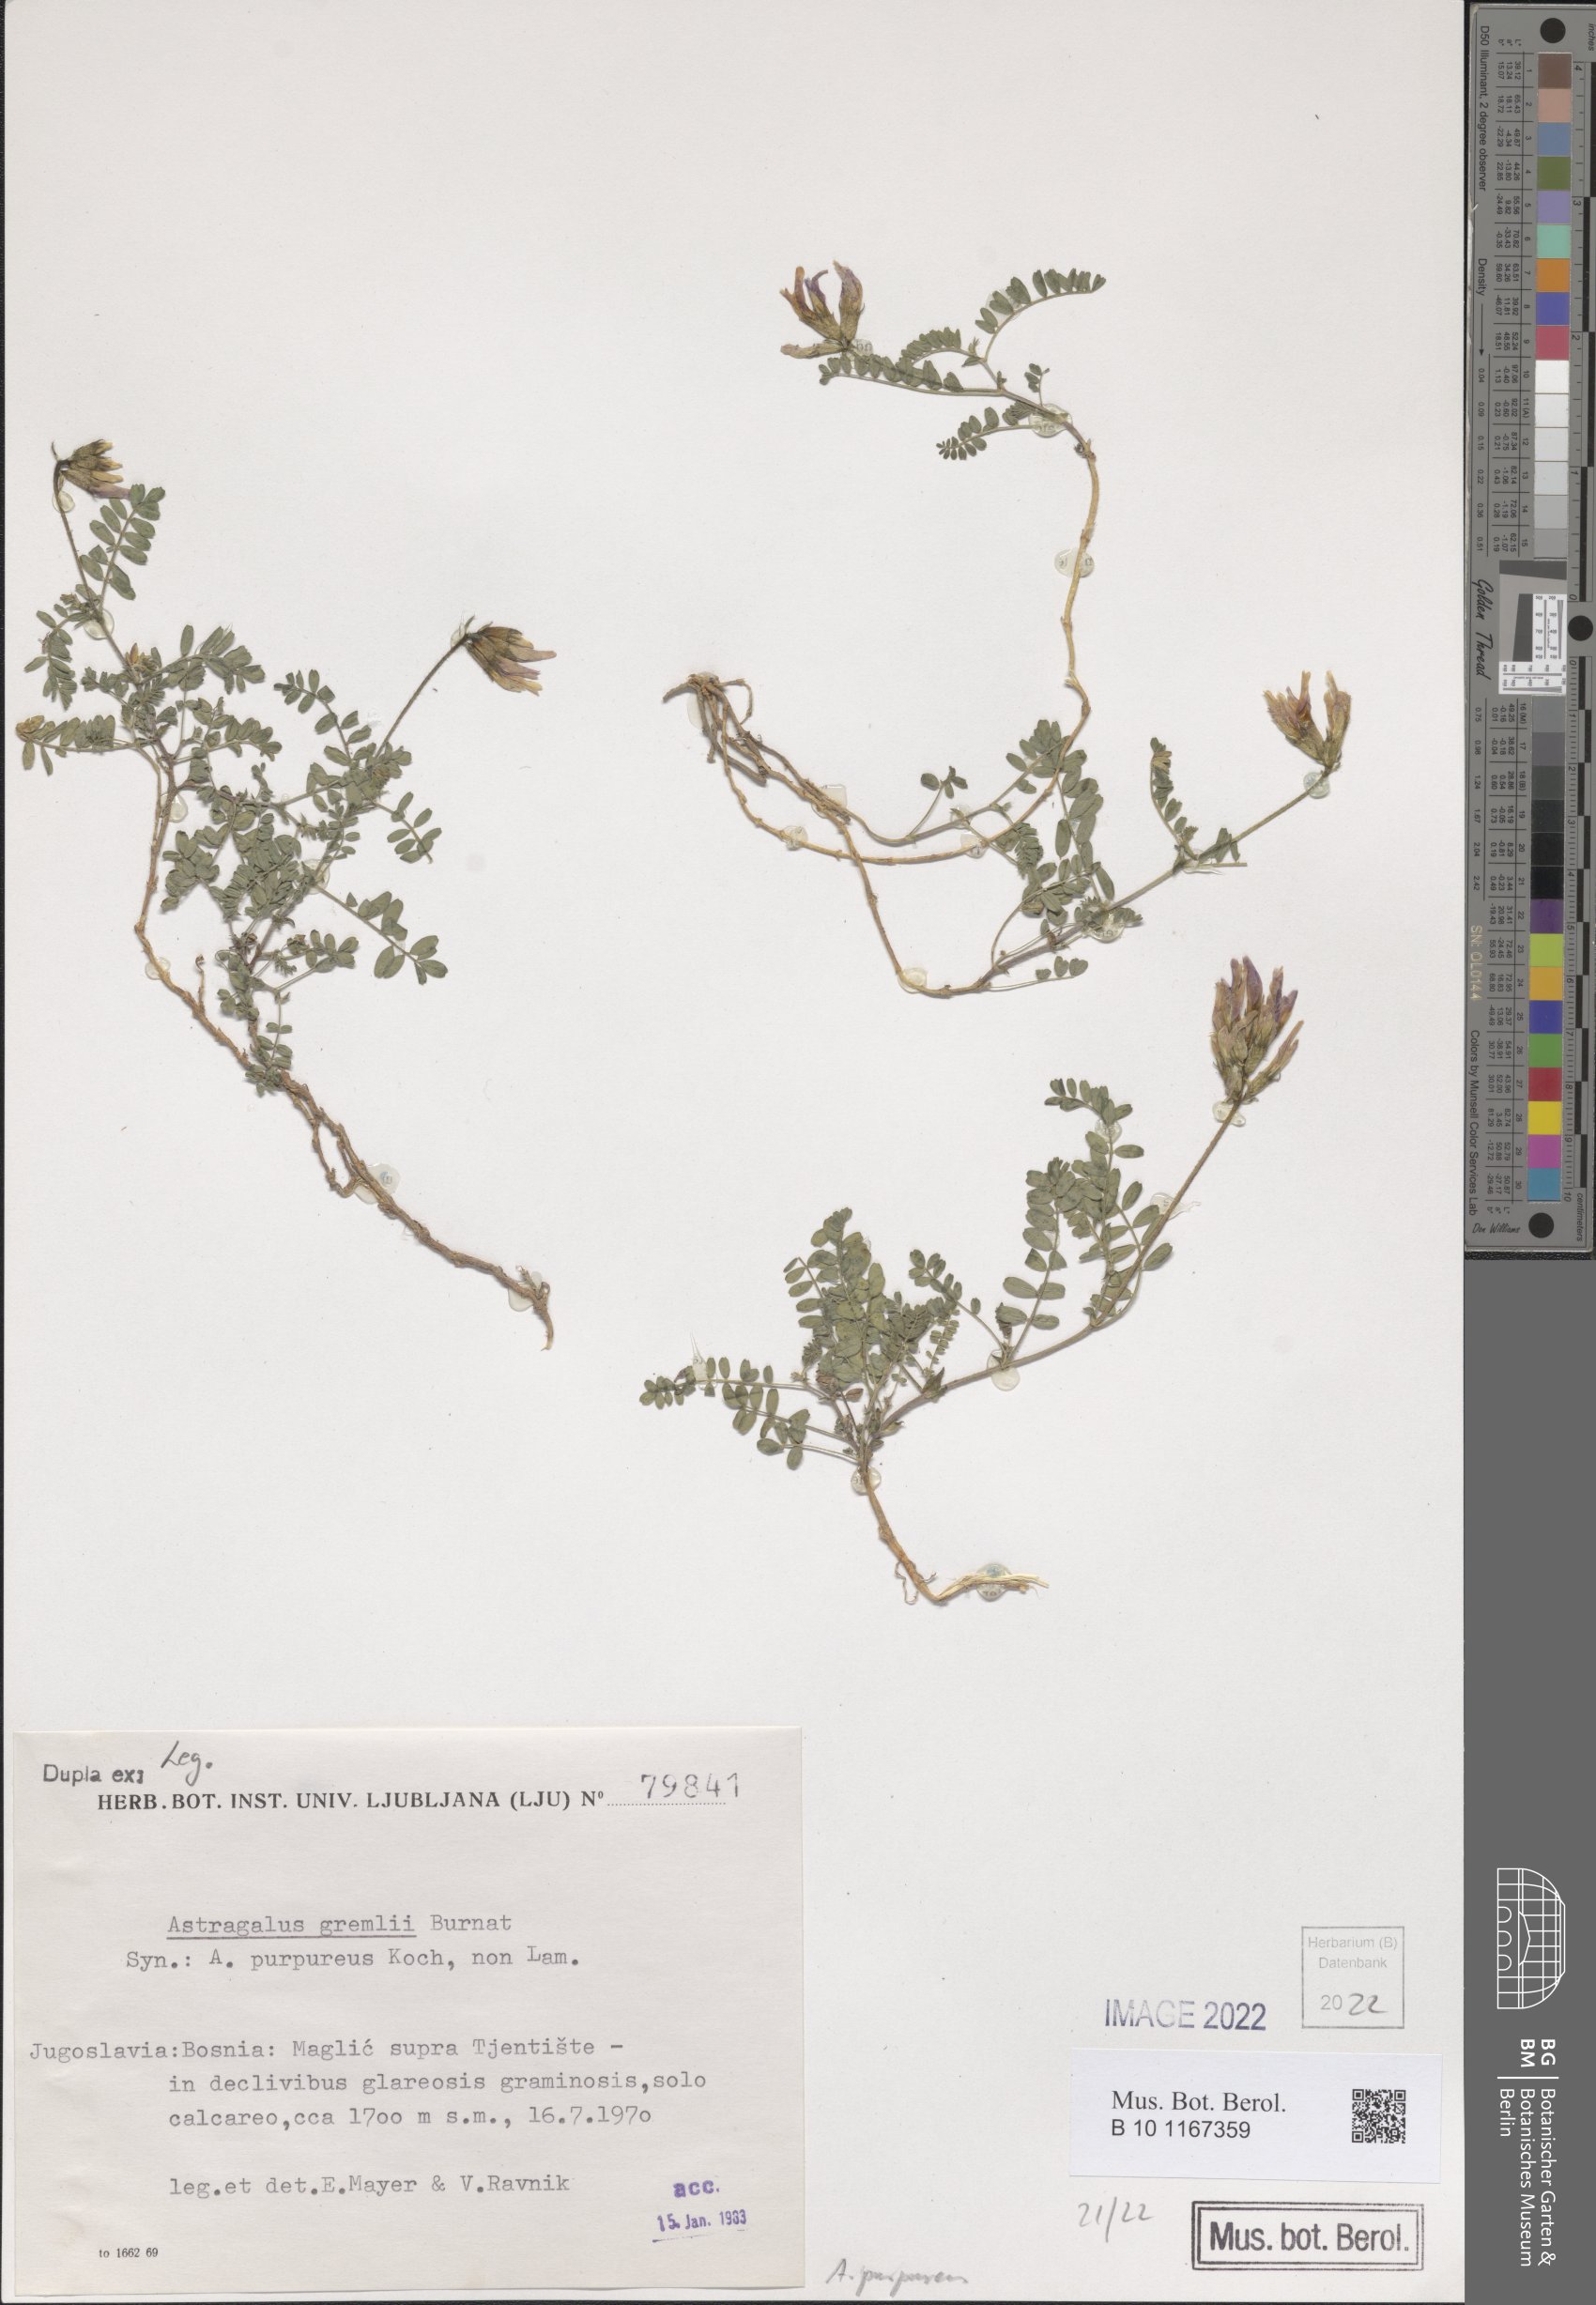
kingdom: Plantae
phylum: Tracheophyta
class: Magnoliopsida
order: Fabales
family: Fabaceae
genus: Astragalus
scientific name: Astragalus hypoglottis
